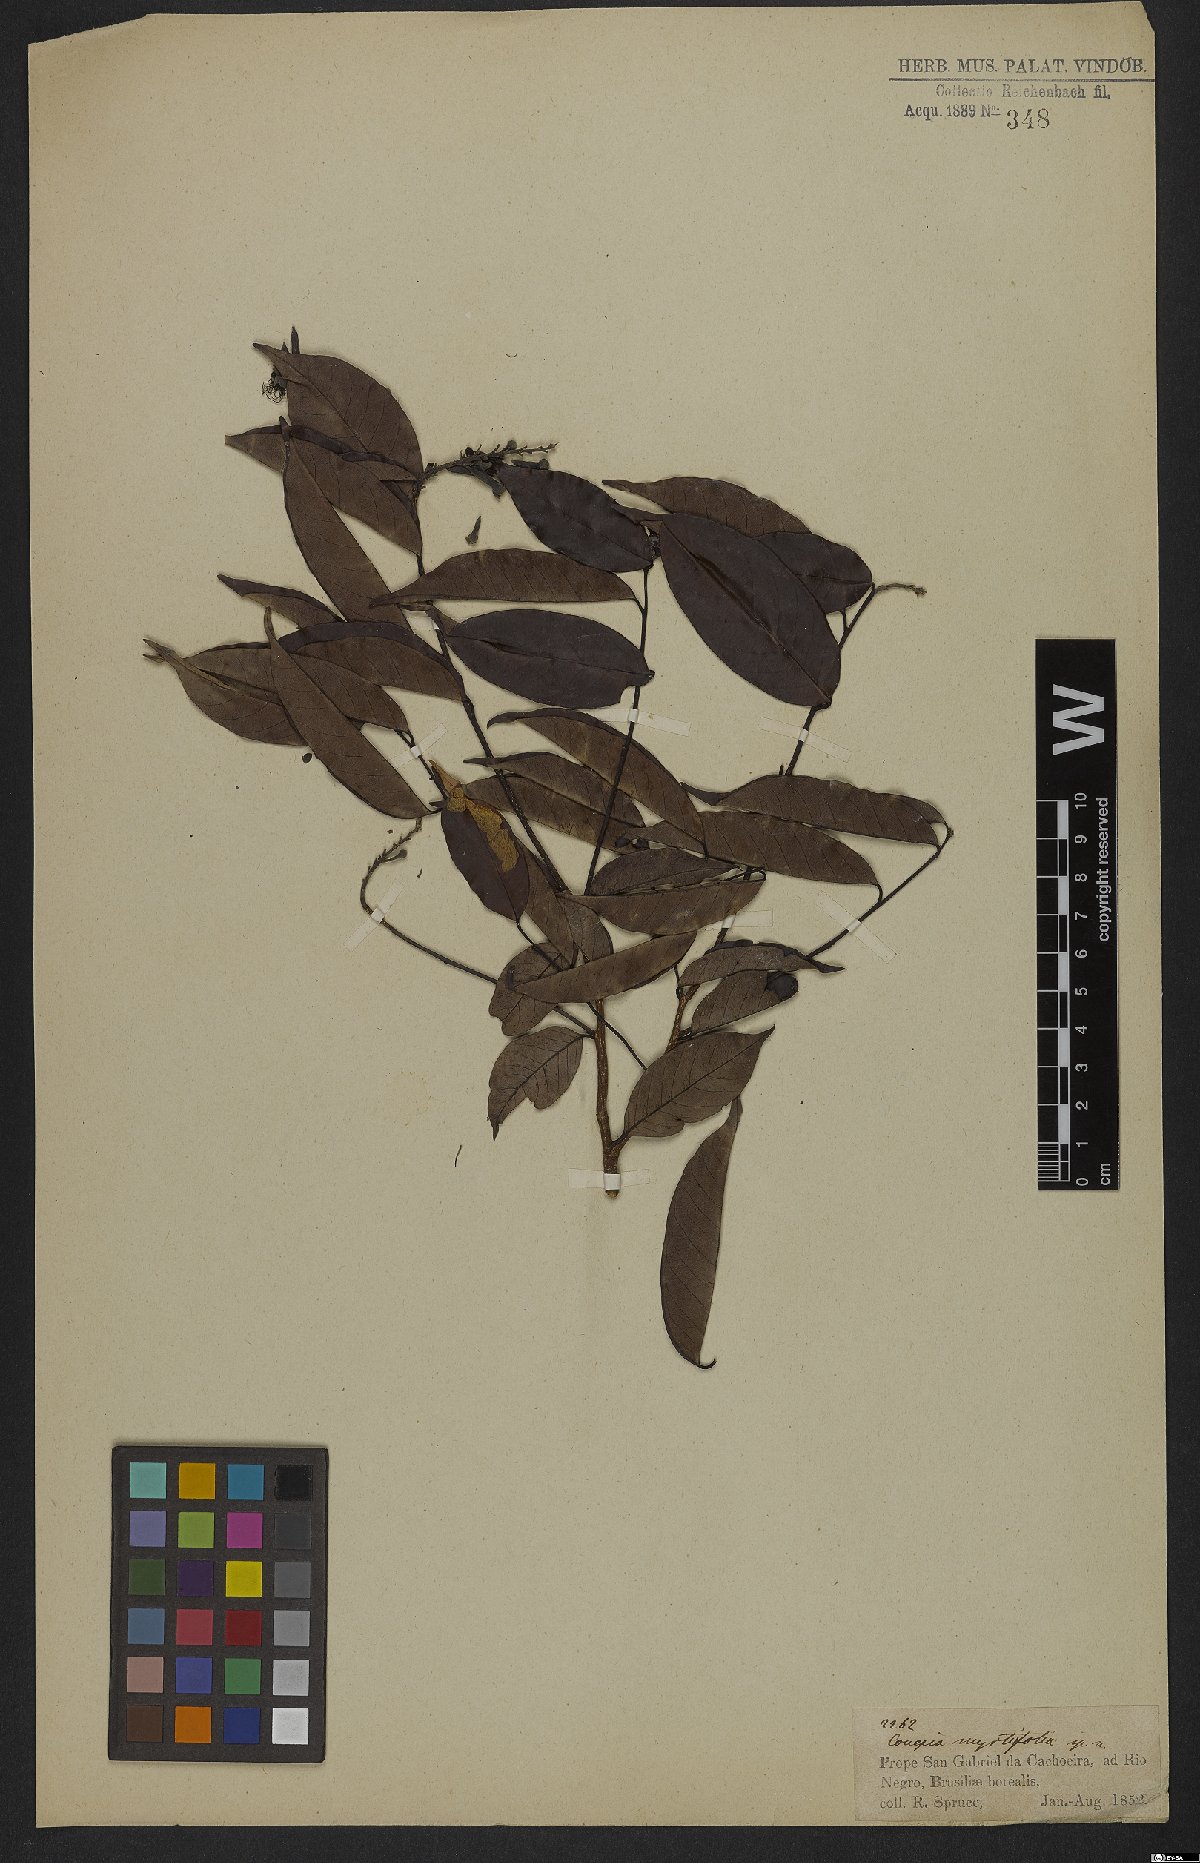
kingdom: Plantae
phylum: Tracheophyta
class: Magnoliopsida
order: Malpighiales
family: Chrysobalanaceae
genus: Couepia
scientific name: Couepia guianensis
